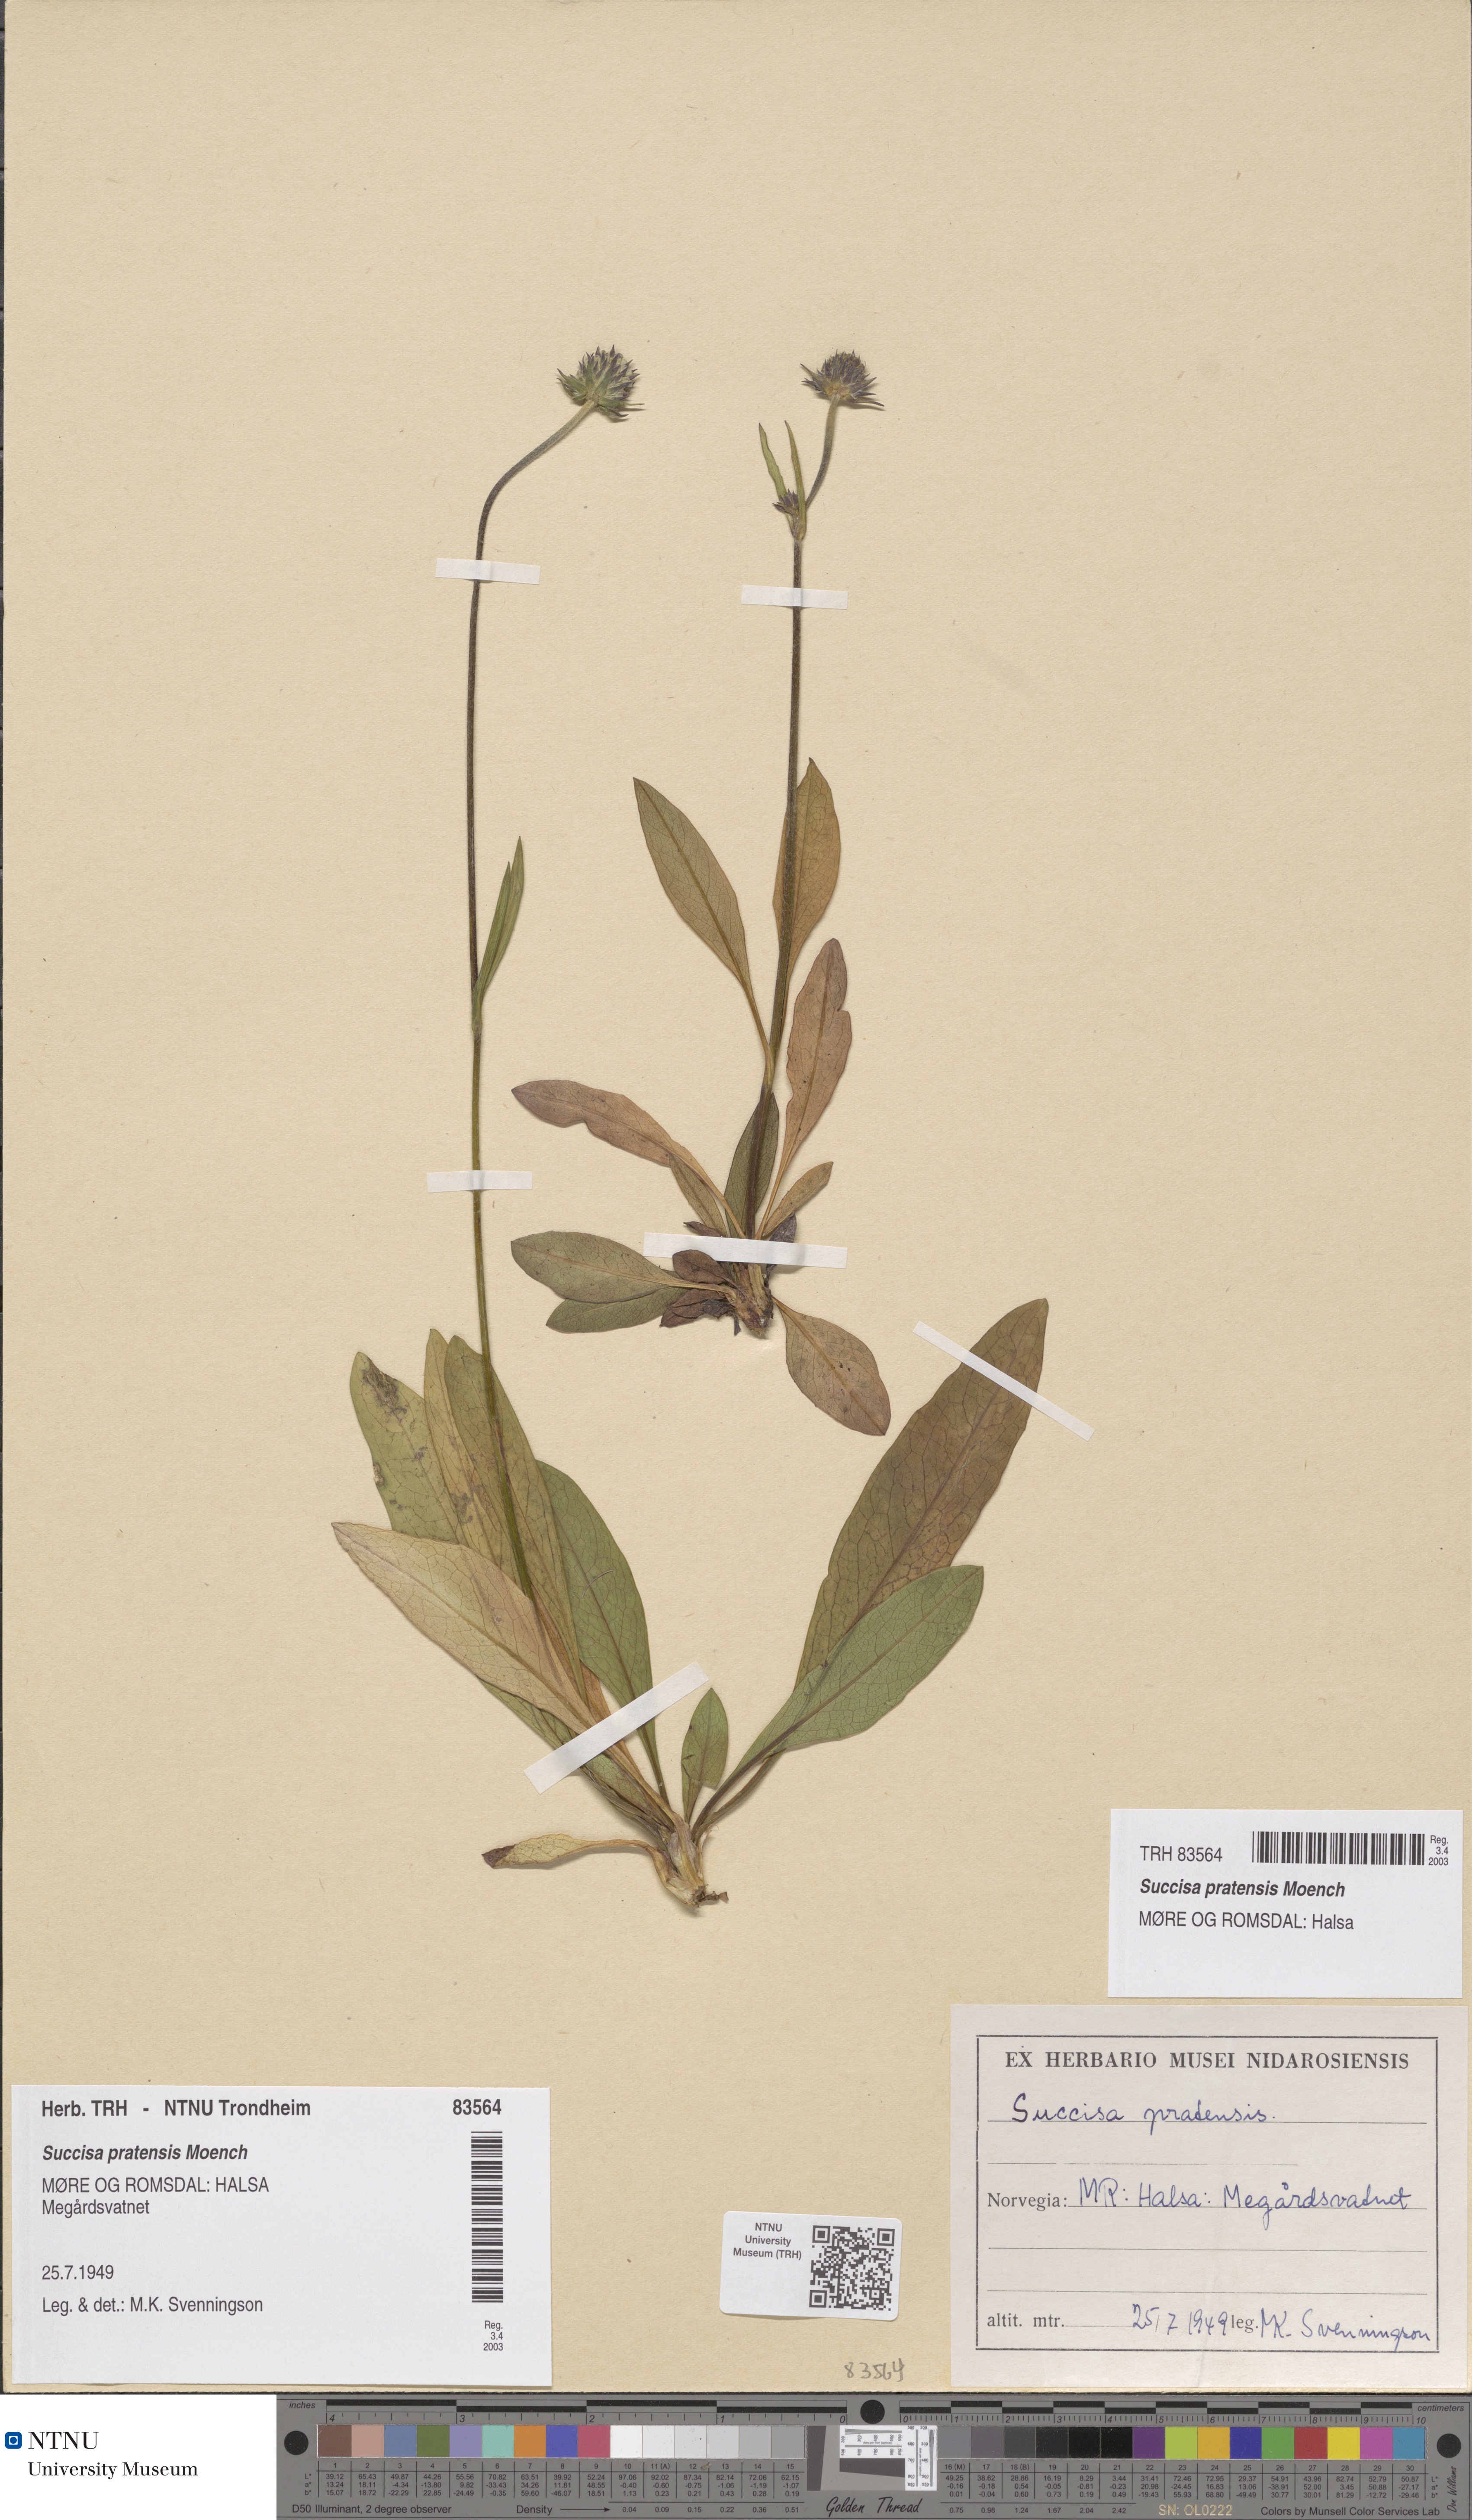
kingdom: Plantae
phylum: Tracheophyta
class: Magnoliopsida
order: Dipsacales
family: Caprifoliaceae
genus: Succisa
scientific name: Succisa pratensis
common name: Devil's-bit
